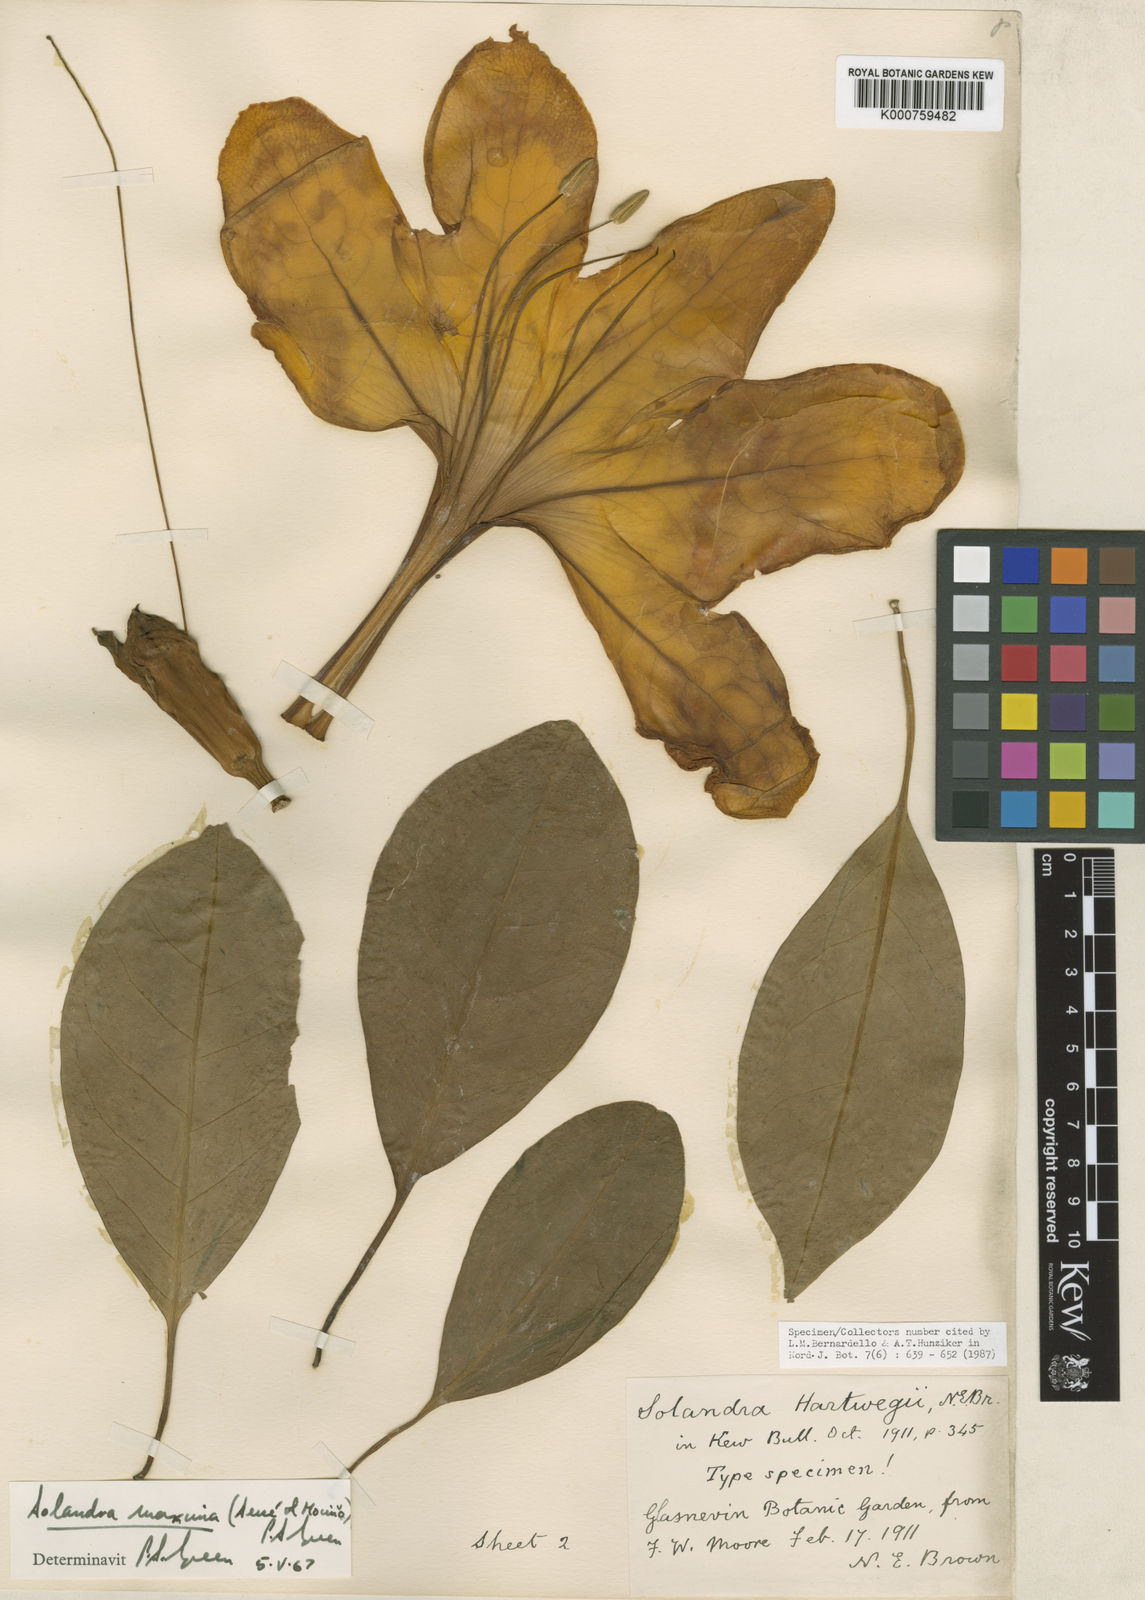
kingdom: Plantae
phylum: Tracheophyta
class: Magnoliopsida
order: Solanales
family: Solanaceae
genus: Solandra
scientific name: Solandra
